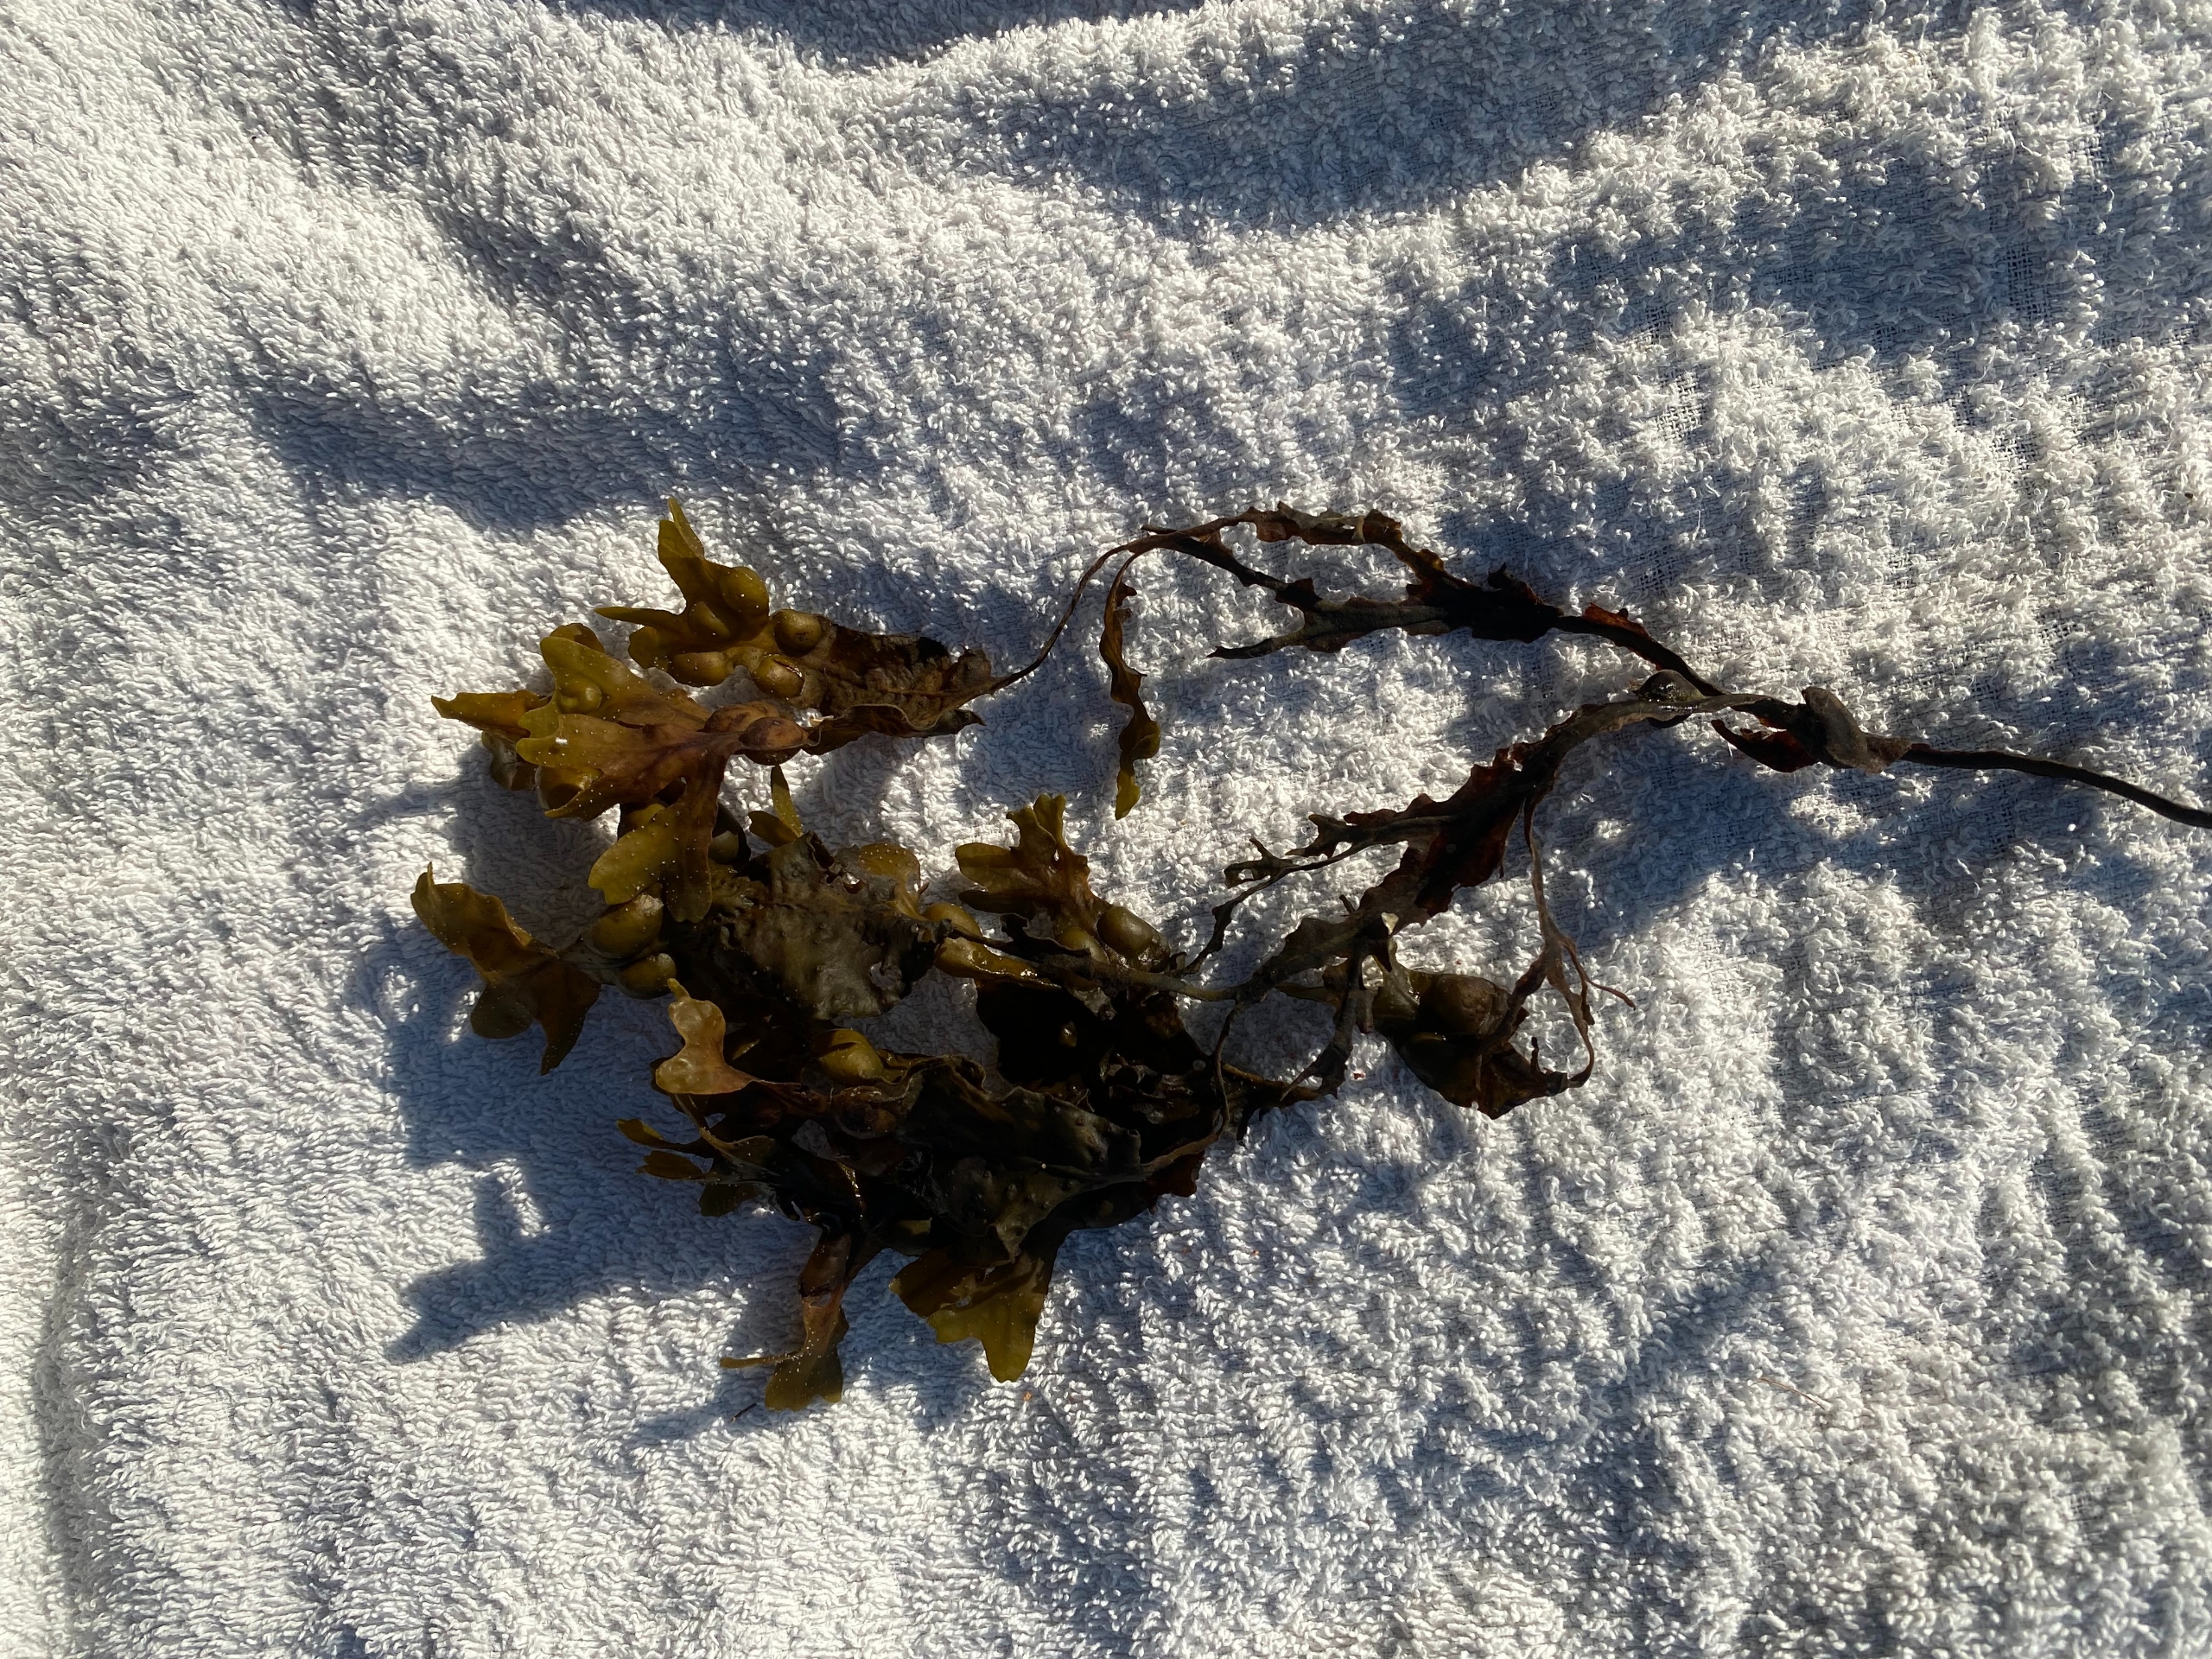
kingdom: Chromista
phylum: Ochrophyta
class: Phaeophyceae
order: Fucales
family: Fucaceae
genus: Fucus
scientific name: Fucus vesiculosus
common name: Blæretang
